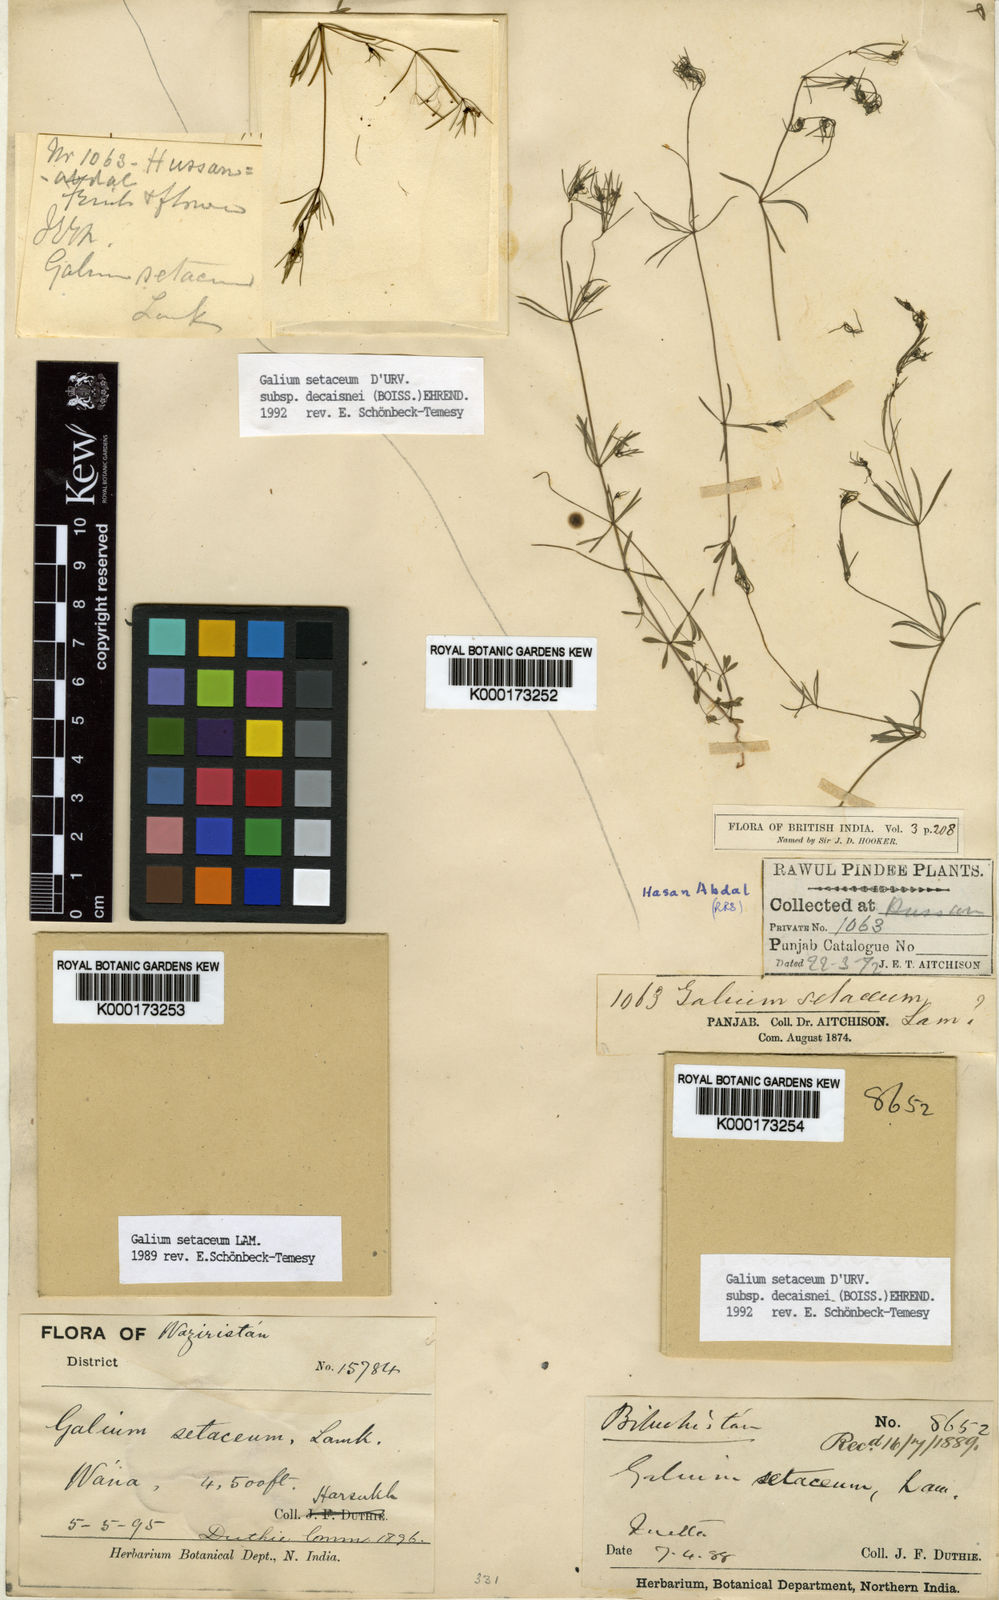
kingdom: Plantae
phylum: Tracheophyta
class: Magnoliopsida
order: Gentianales
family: Rubiaceae
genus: Galium
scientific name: Galium setaceum
